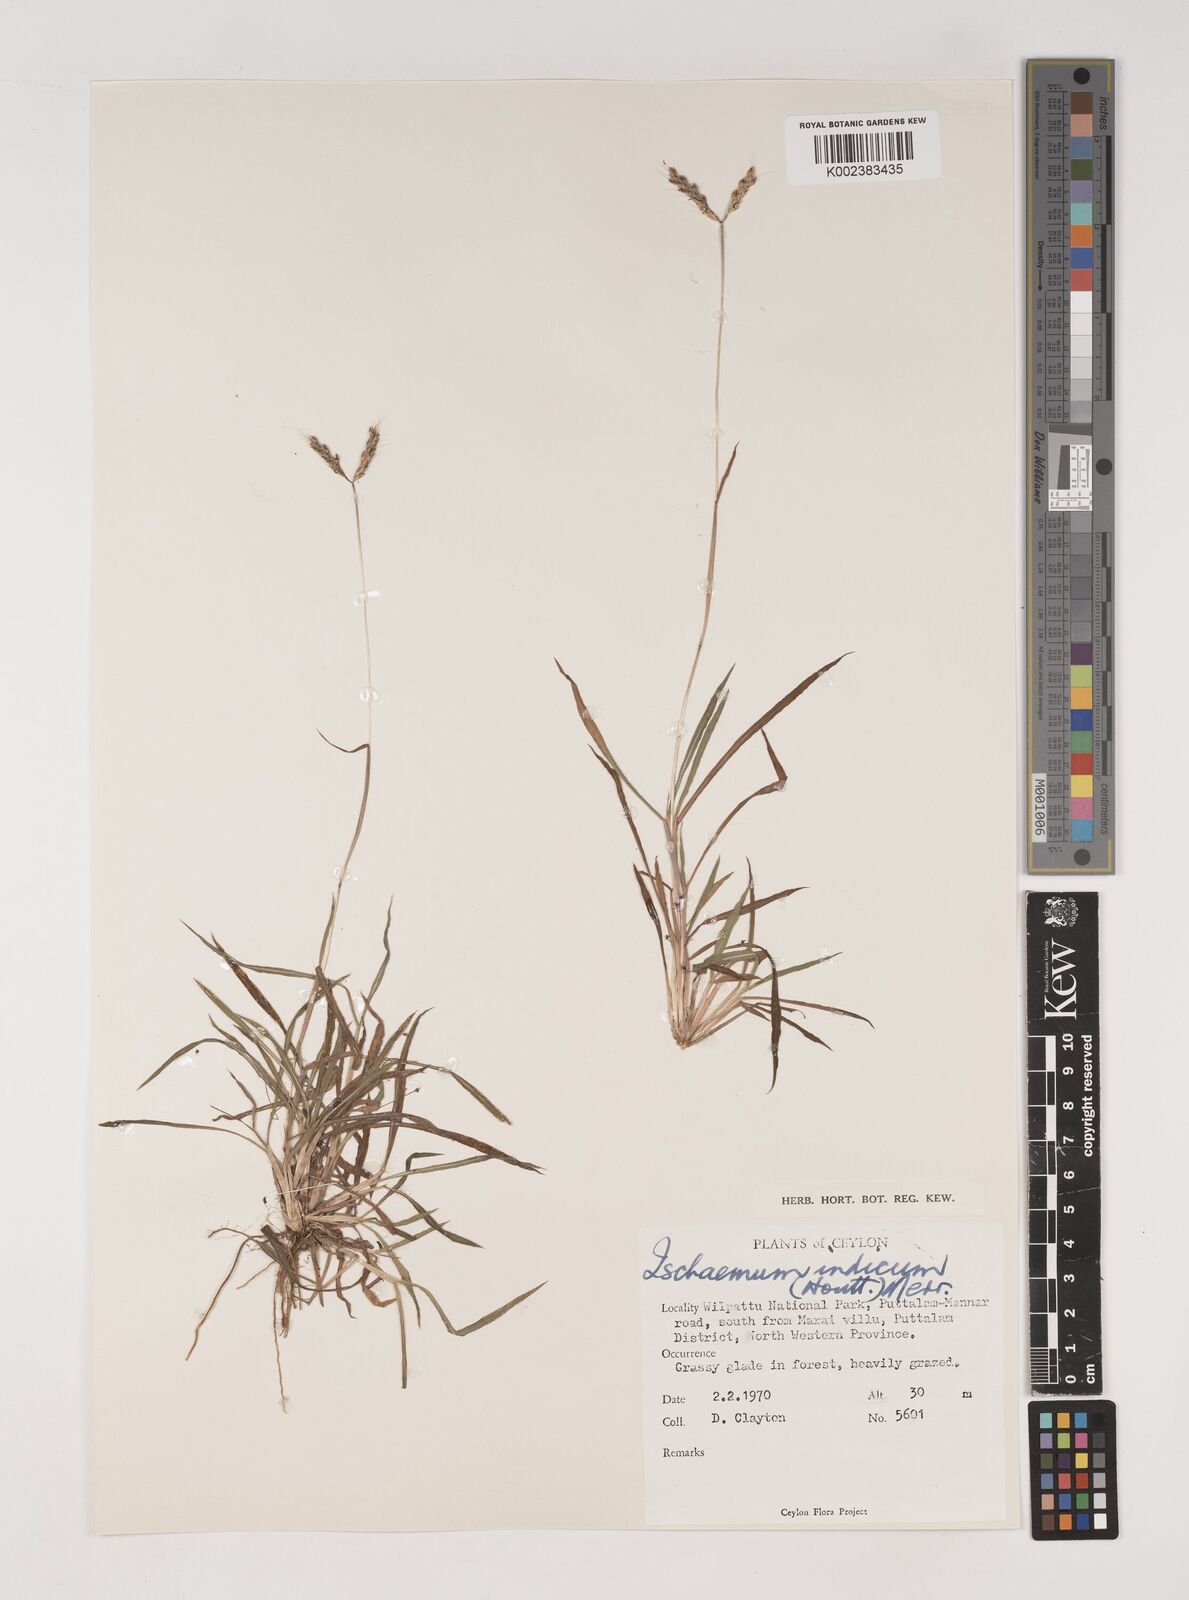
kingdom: Plantae
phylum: Tracheophyta
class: Liliopsida
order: Poales
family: Poaceae
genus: Polytrias
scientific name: Polytrias indica
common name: Indian murainagrass
